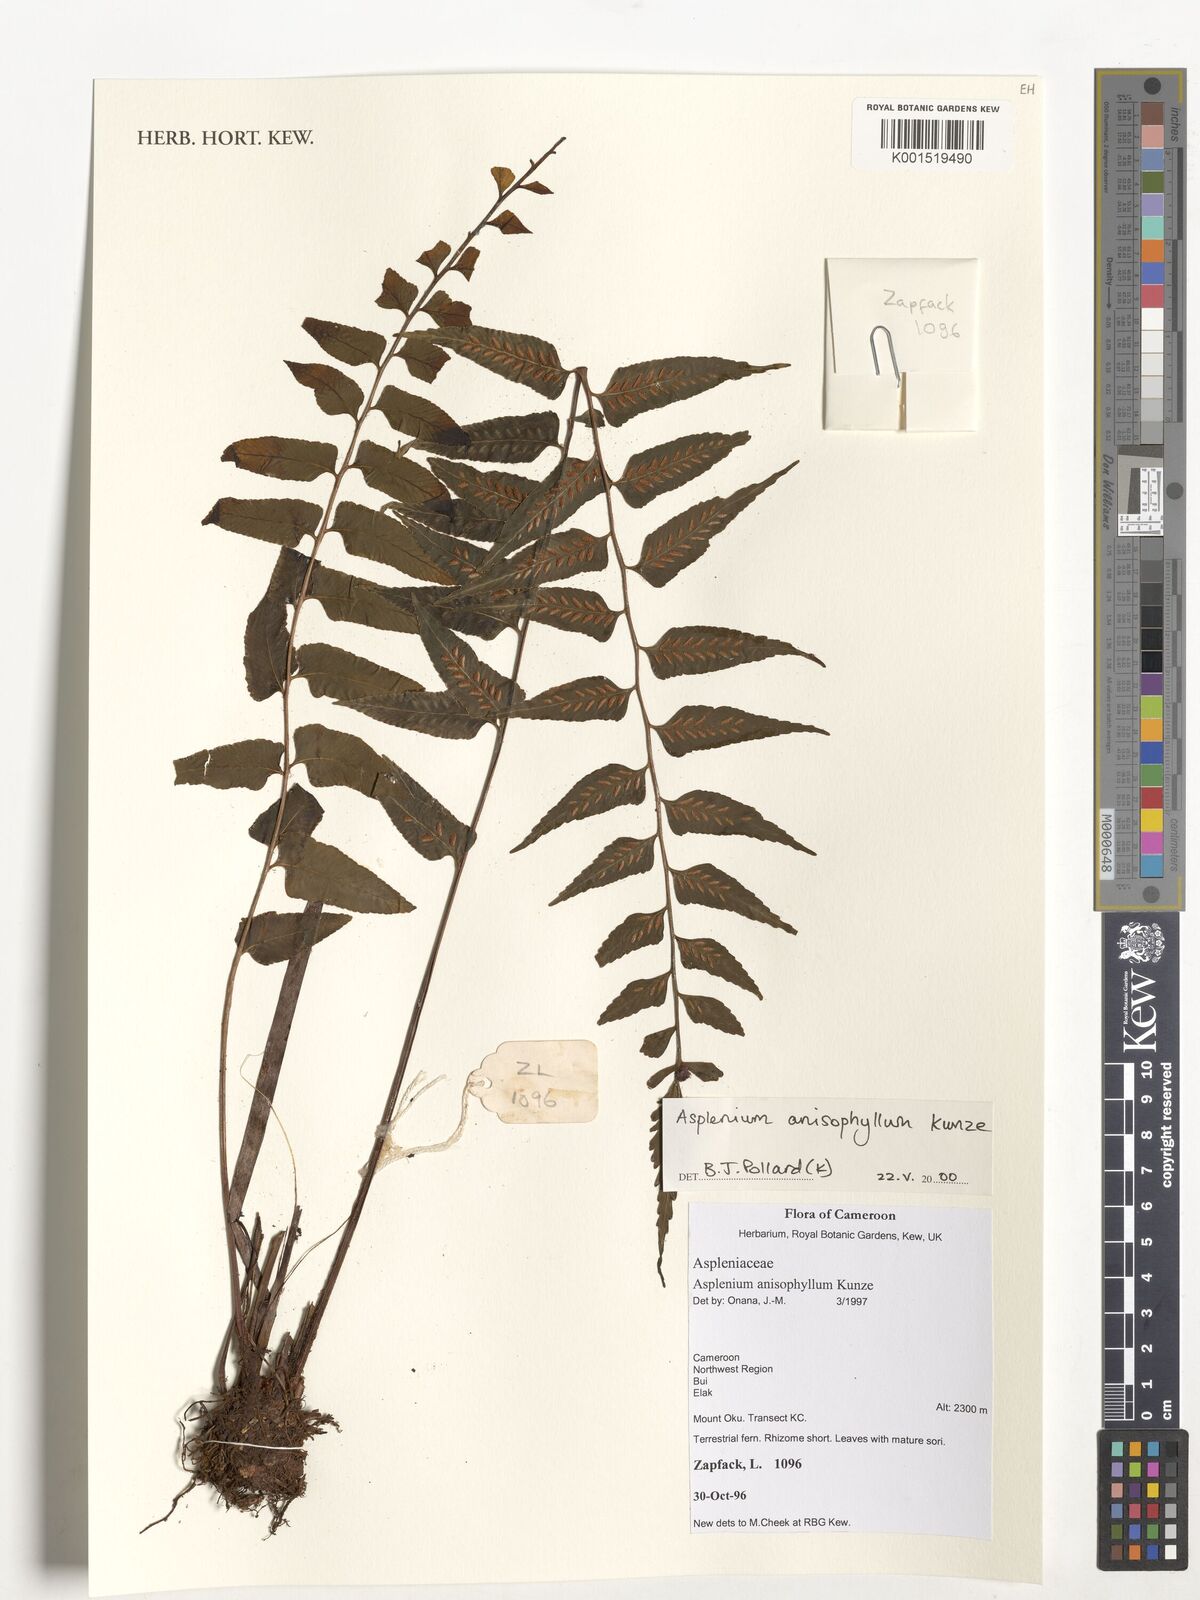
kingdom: Plantae
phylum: Tracheophyta
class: Polypodiopsida
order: Polypodiales
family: Aspleniaceae
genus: Asplenium
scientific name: Asplenium anisophyllum
